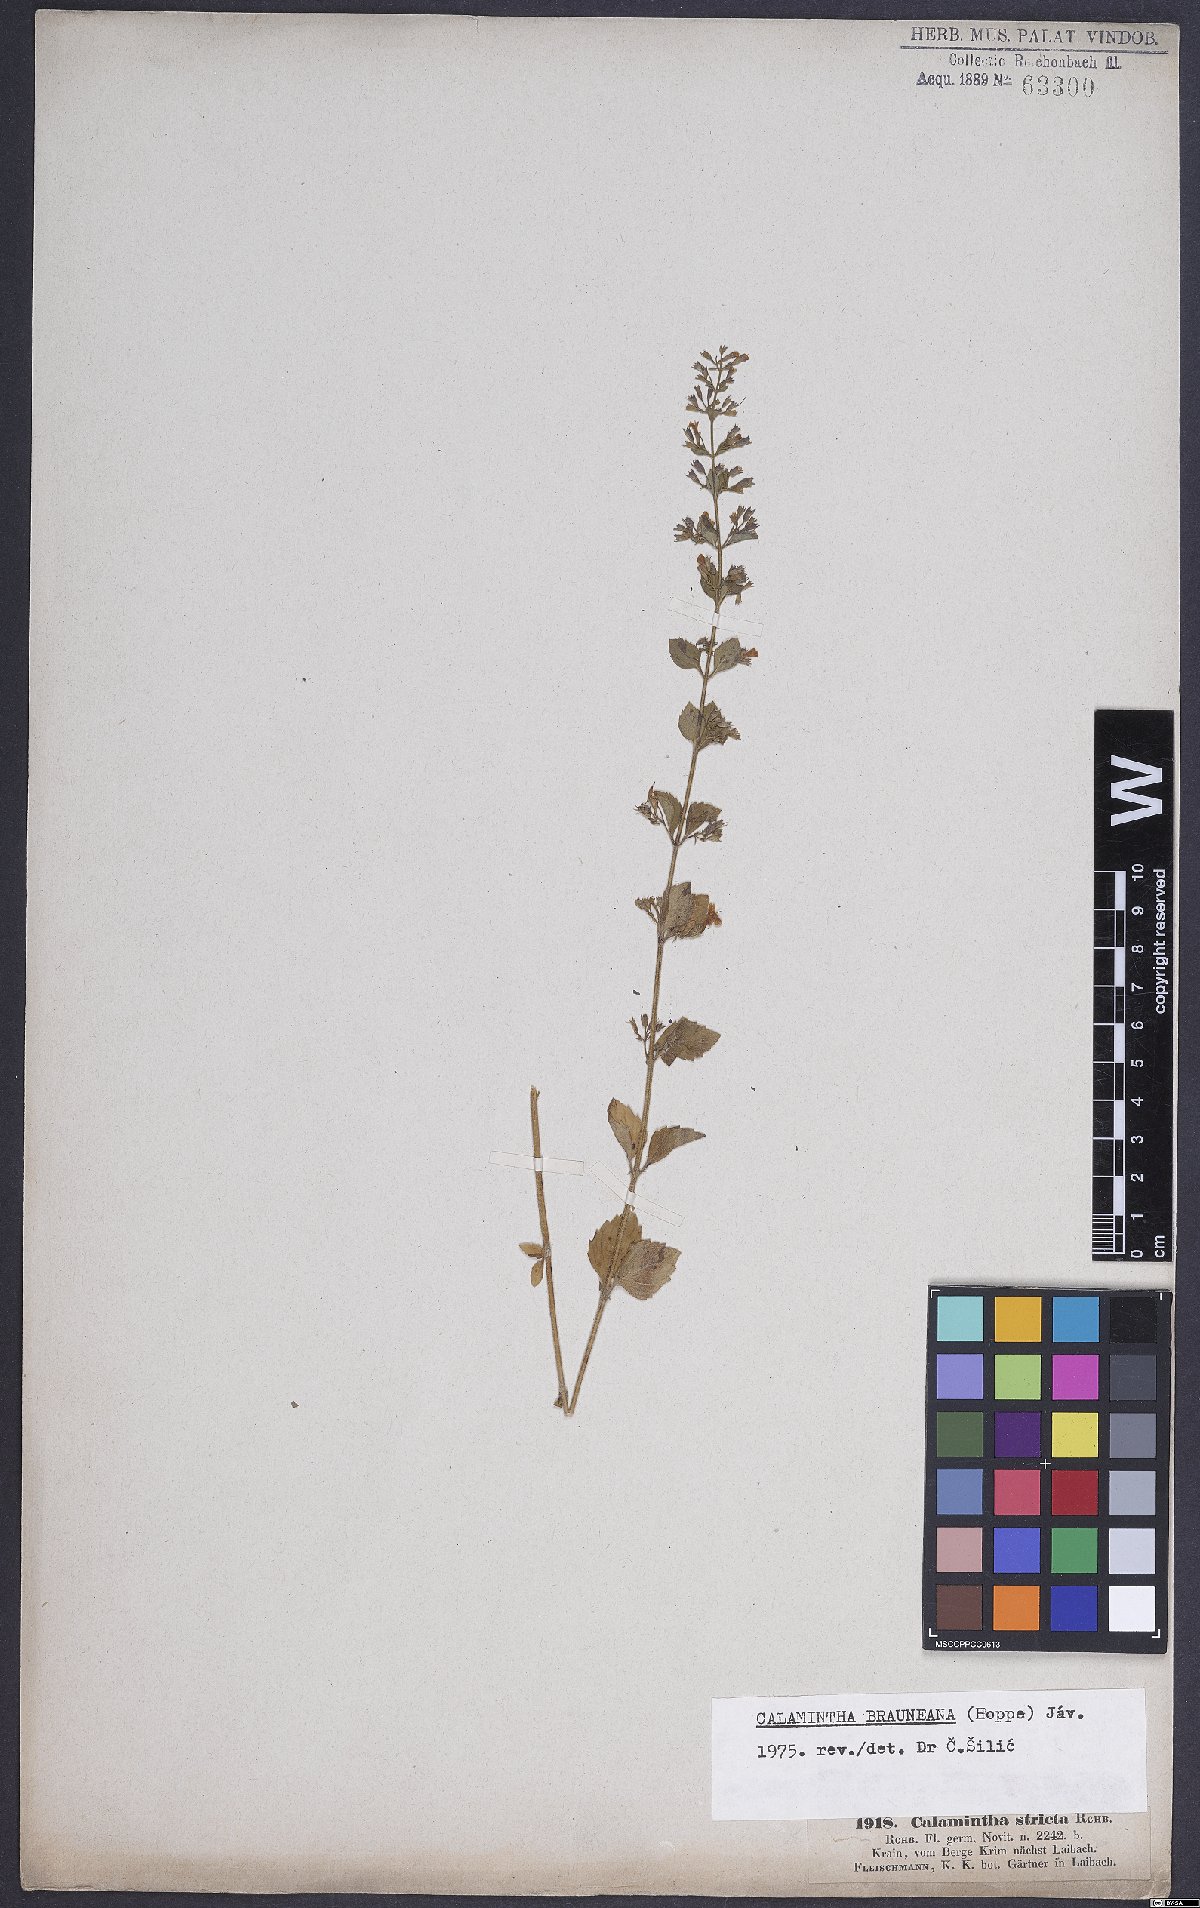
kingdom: Plantae
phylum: Tracheophyta
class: Magnoliopsida
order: Lamiales
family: Lamiaceae
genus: Clinopodium
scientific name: Clinopodium nepeta
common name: Lesser calamint
